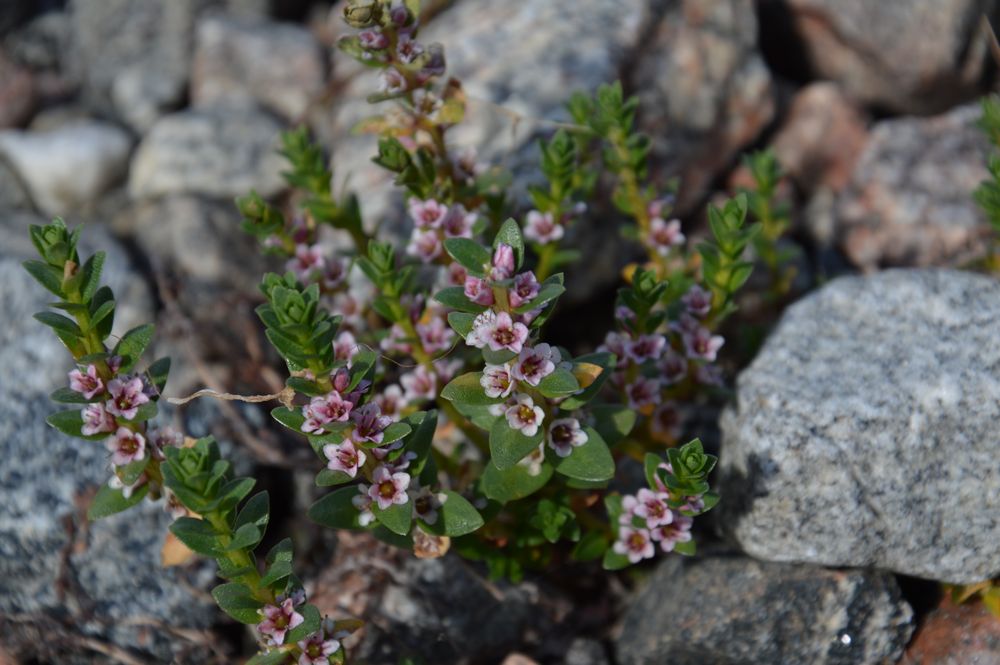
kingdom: Plantae
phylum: Tracheophyta
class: Magnoliopsida
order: Ericales
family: Primulaceae
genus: Lysimachia
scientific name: Lysimachia maritima
